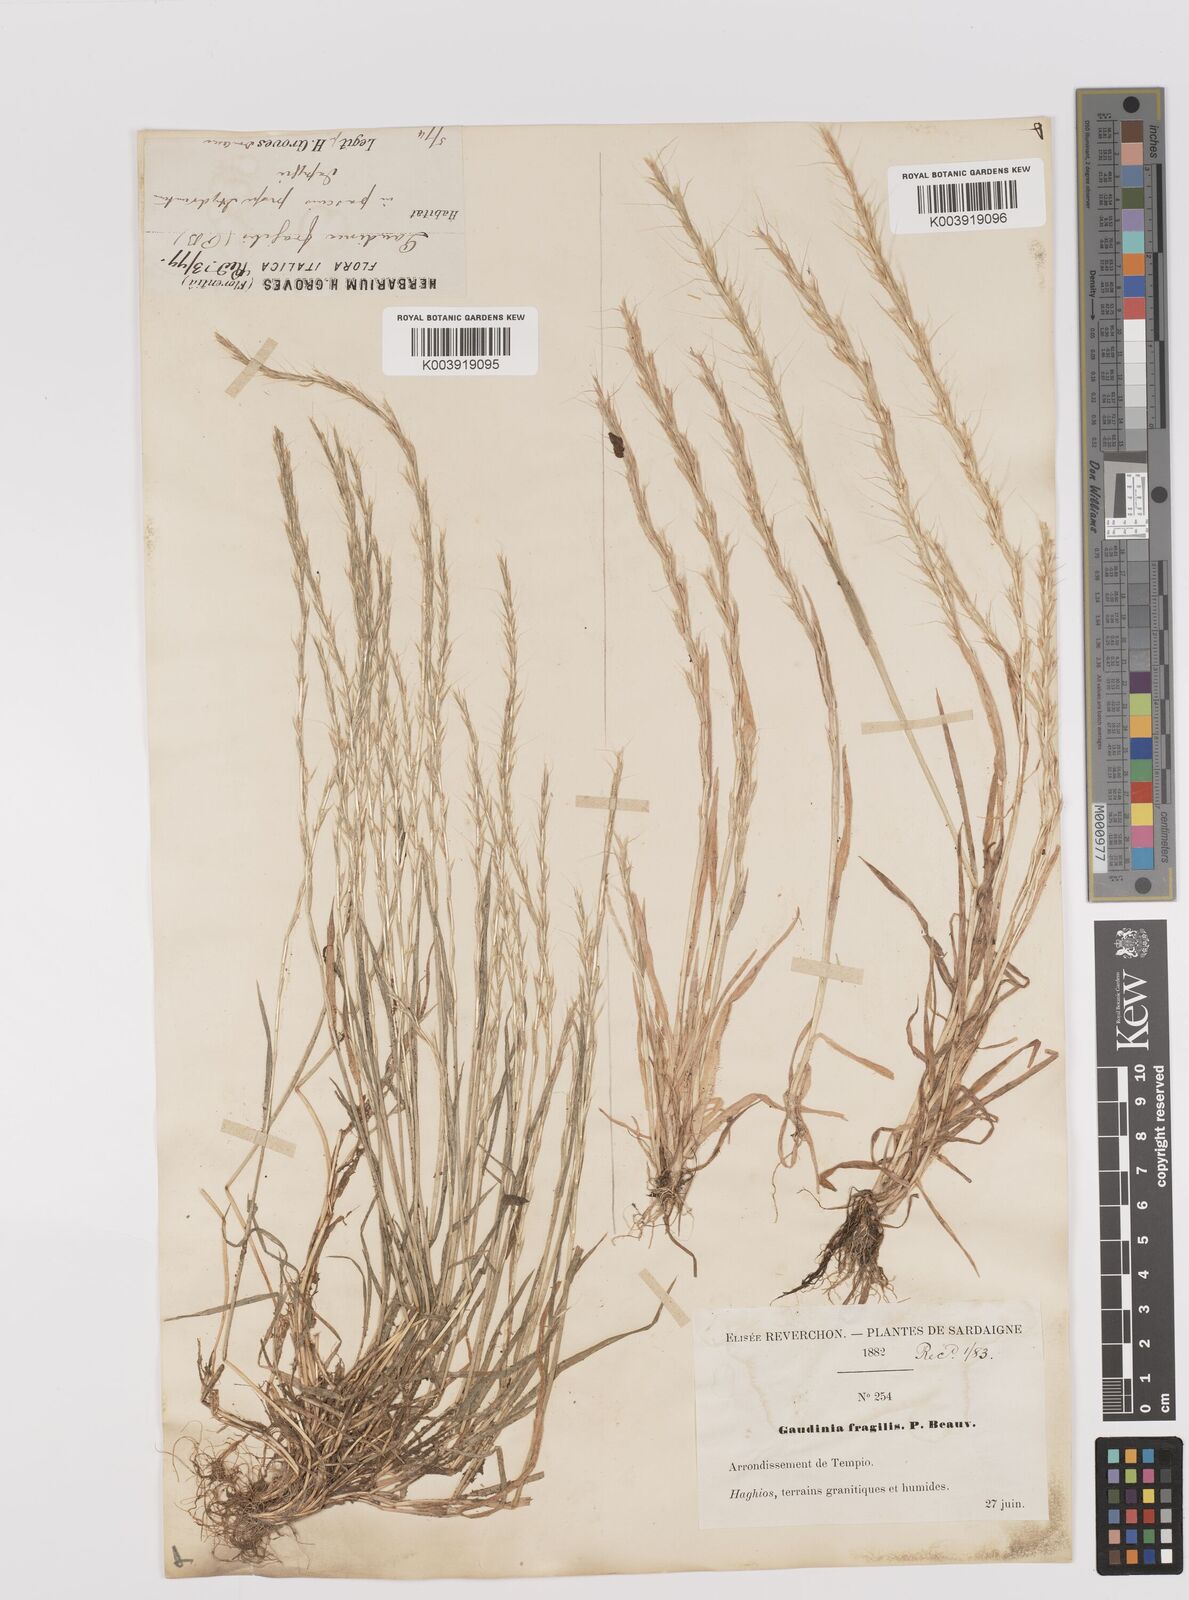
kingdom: Plantae
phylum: Tracheophyta
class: Liliopsida
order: Poales
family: Poaceae
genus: Gaudinia
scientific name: Gaudinia fragilis
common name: French oat-grass
